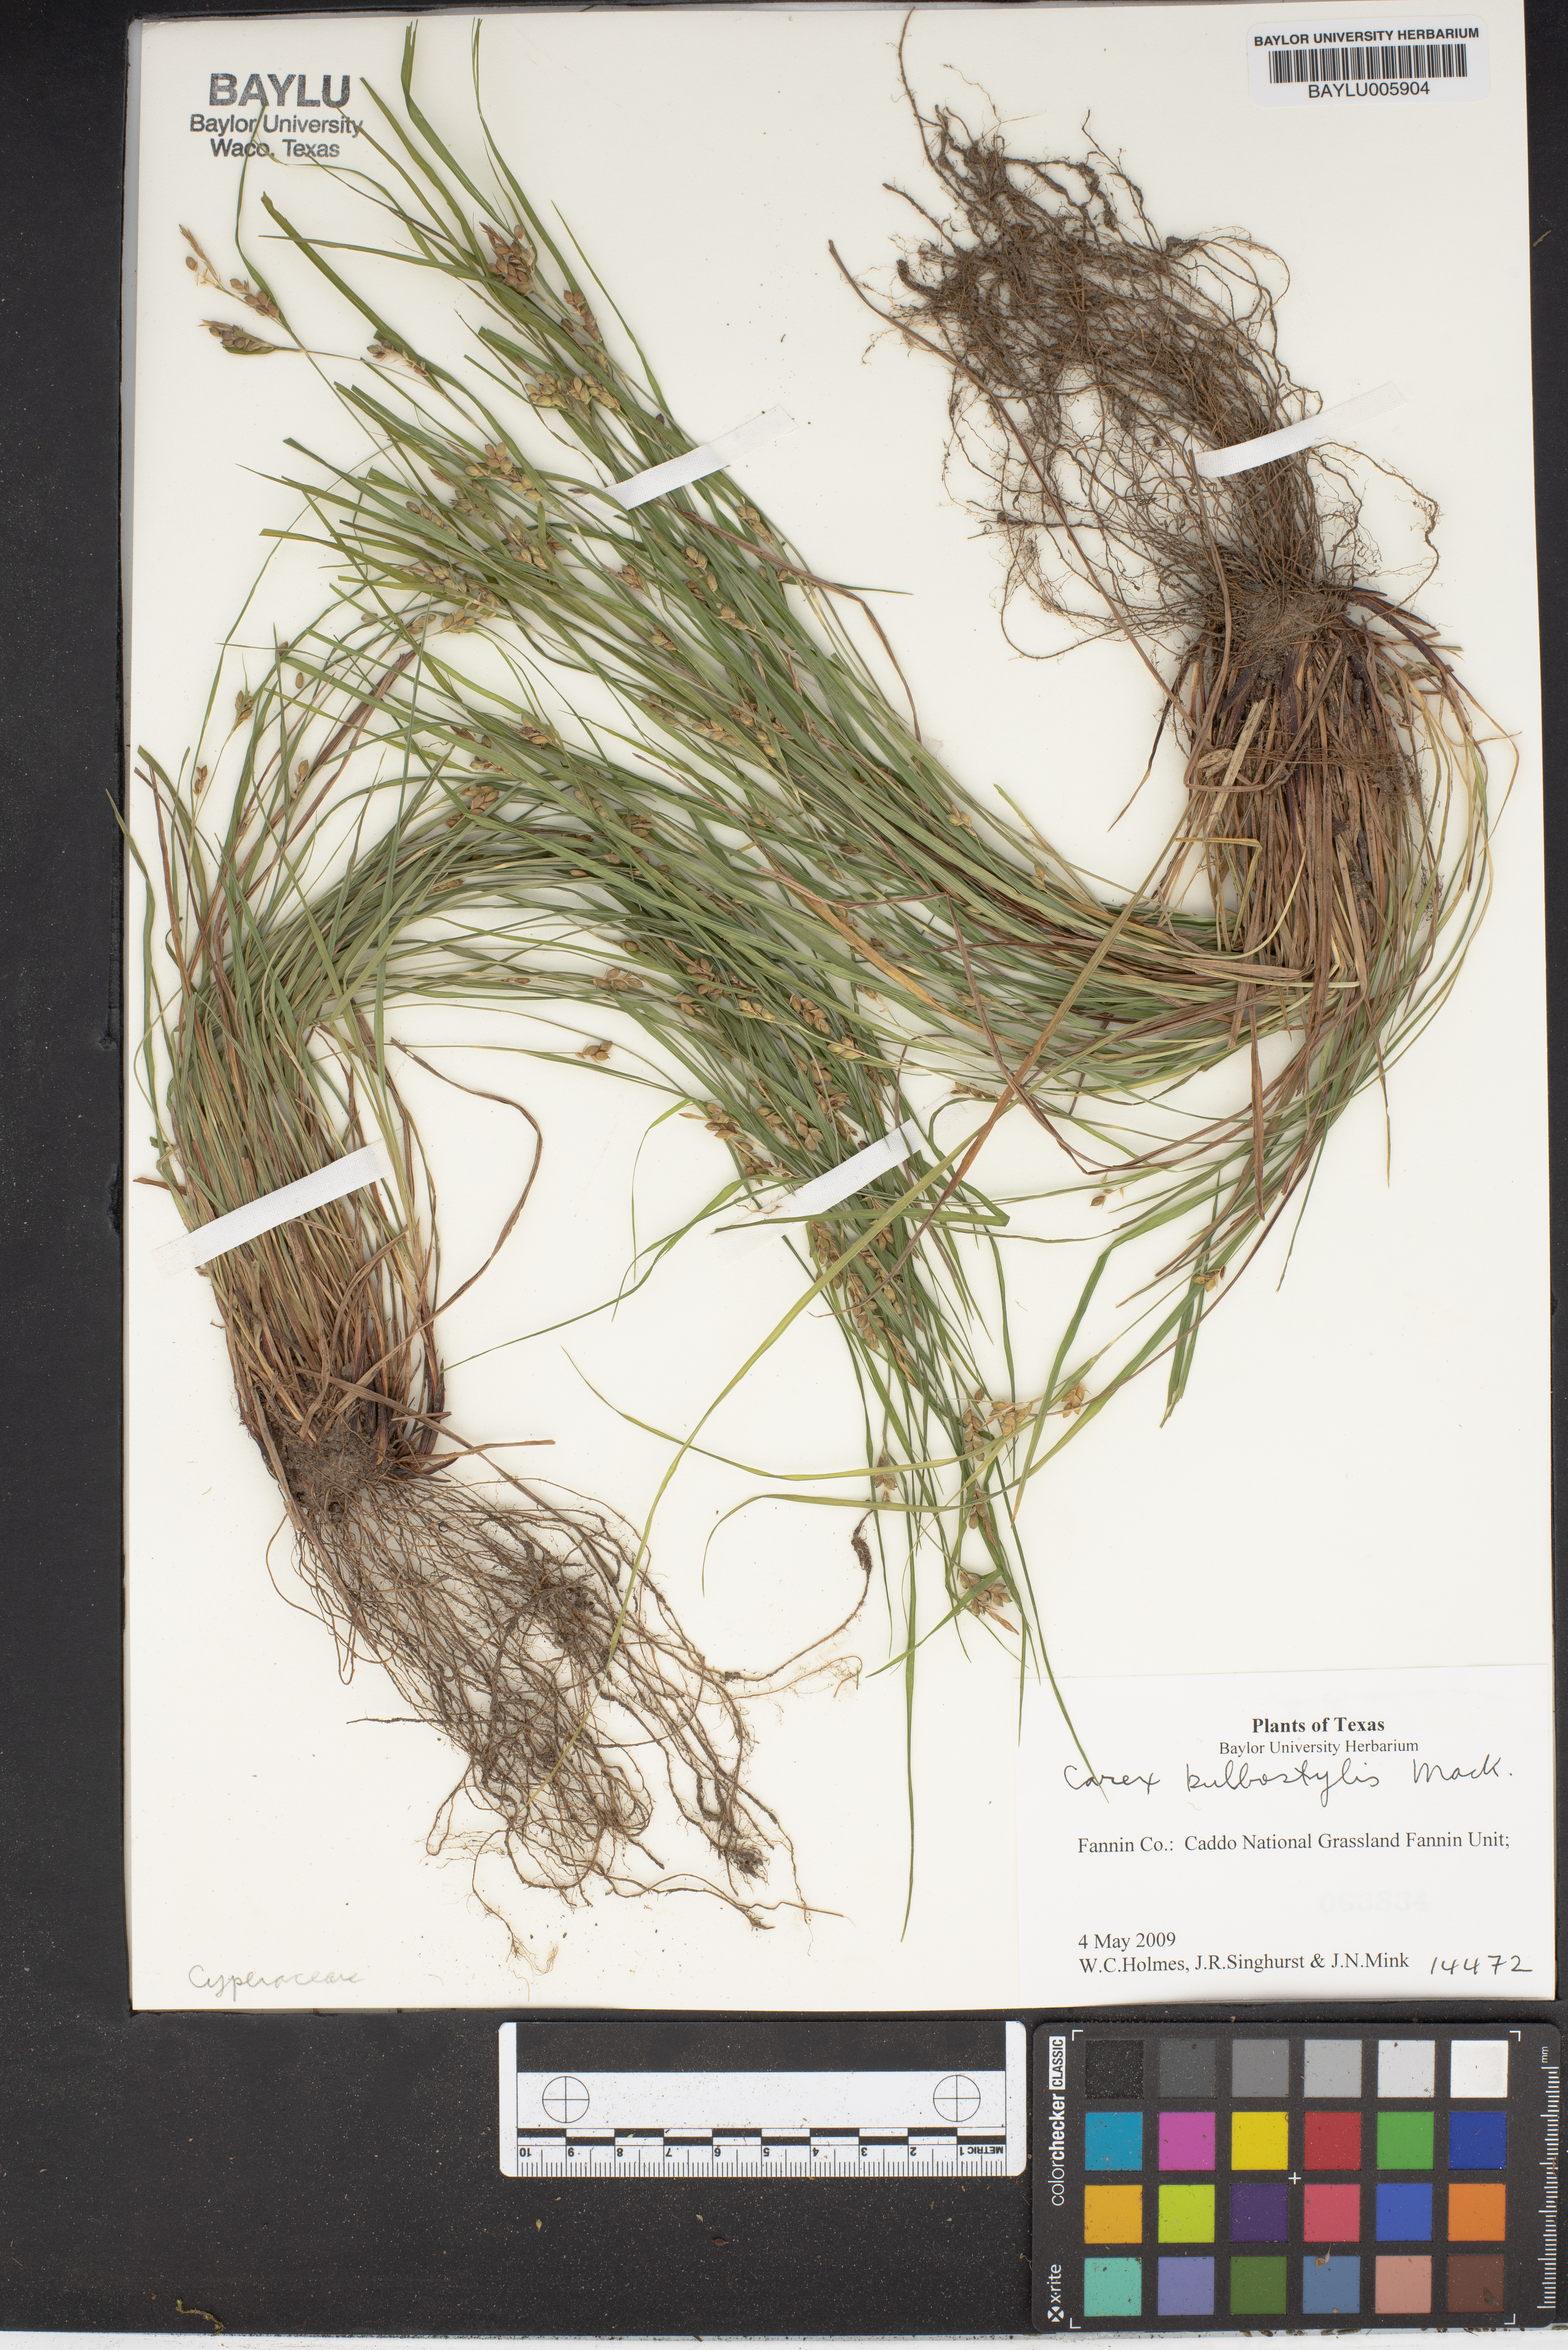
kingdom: Plantae
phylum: Tracheophyta
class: Liliopsida
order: Poales
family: Cyperaceae
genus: Carex
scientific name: Carex bulbostylis
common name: Eastern narrowleaf sedge
